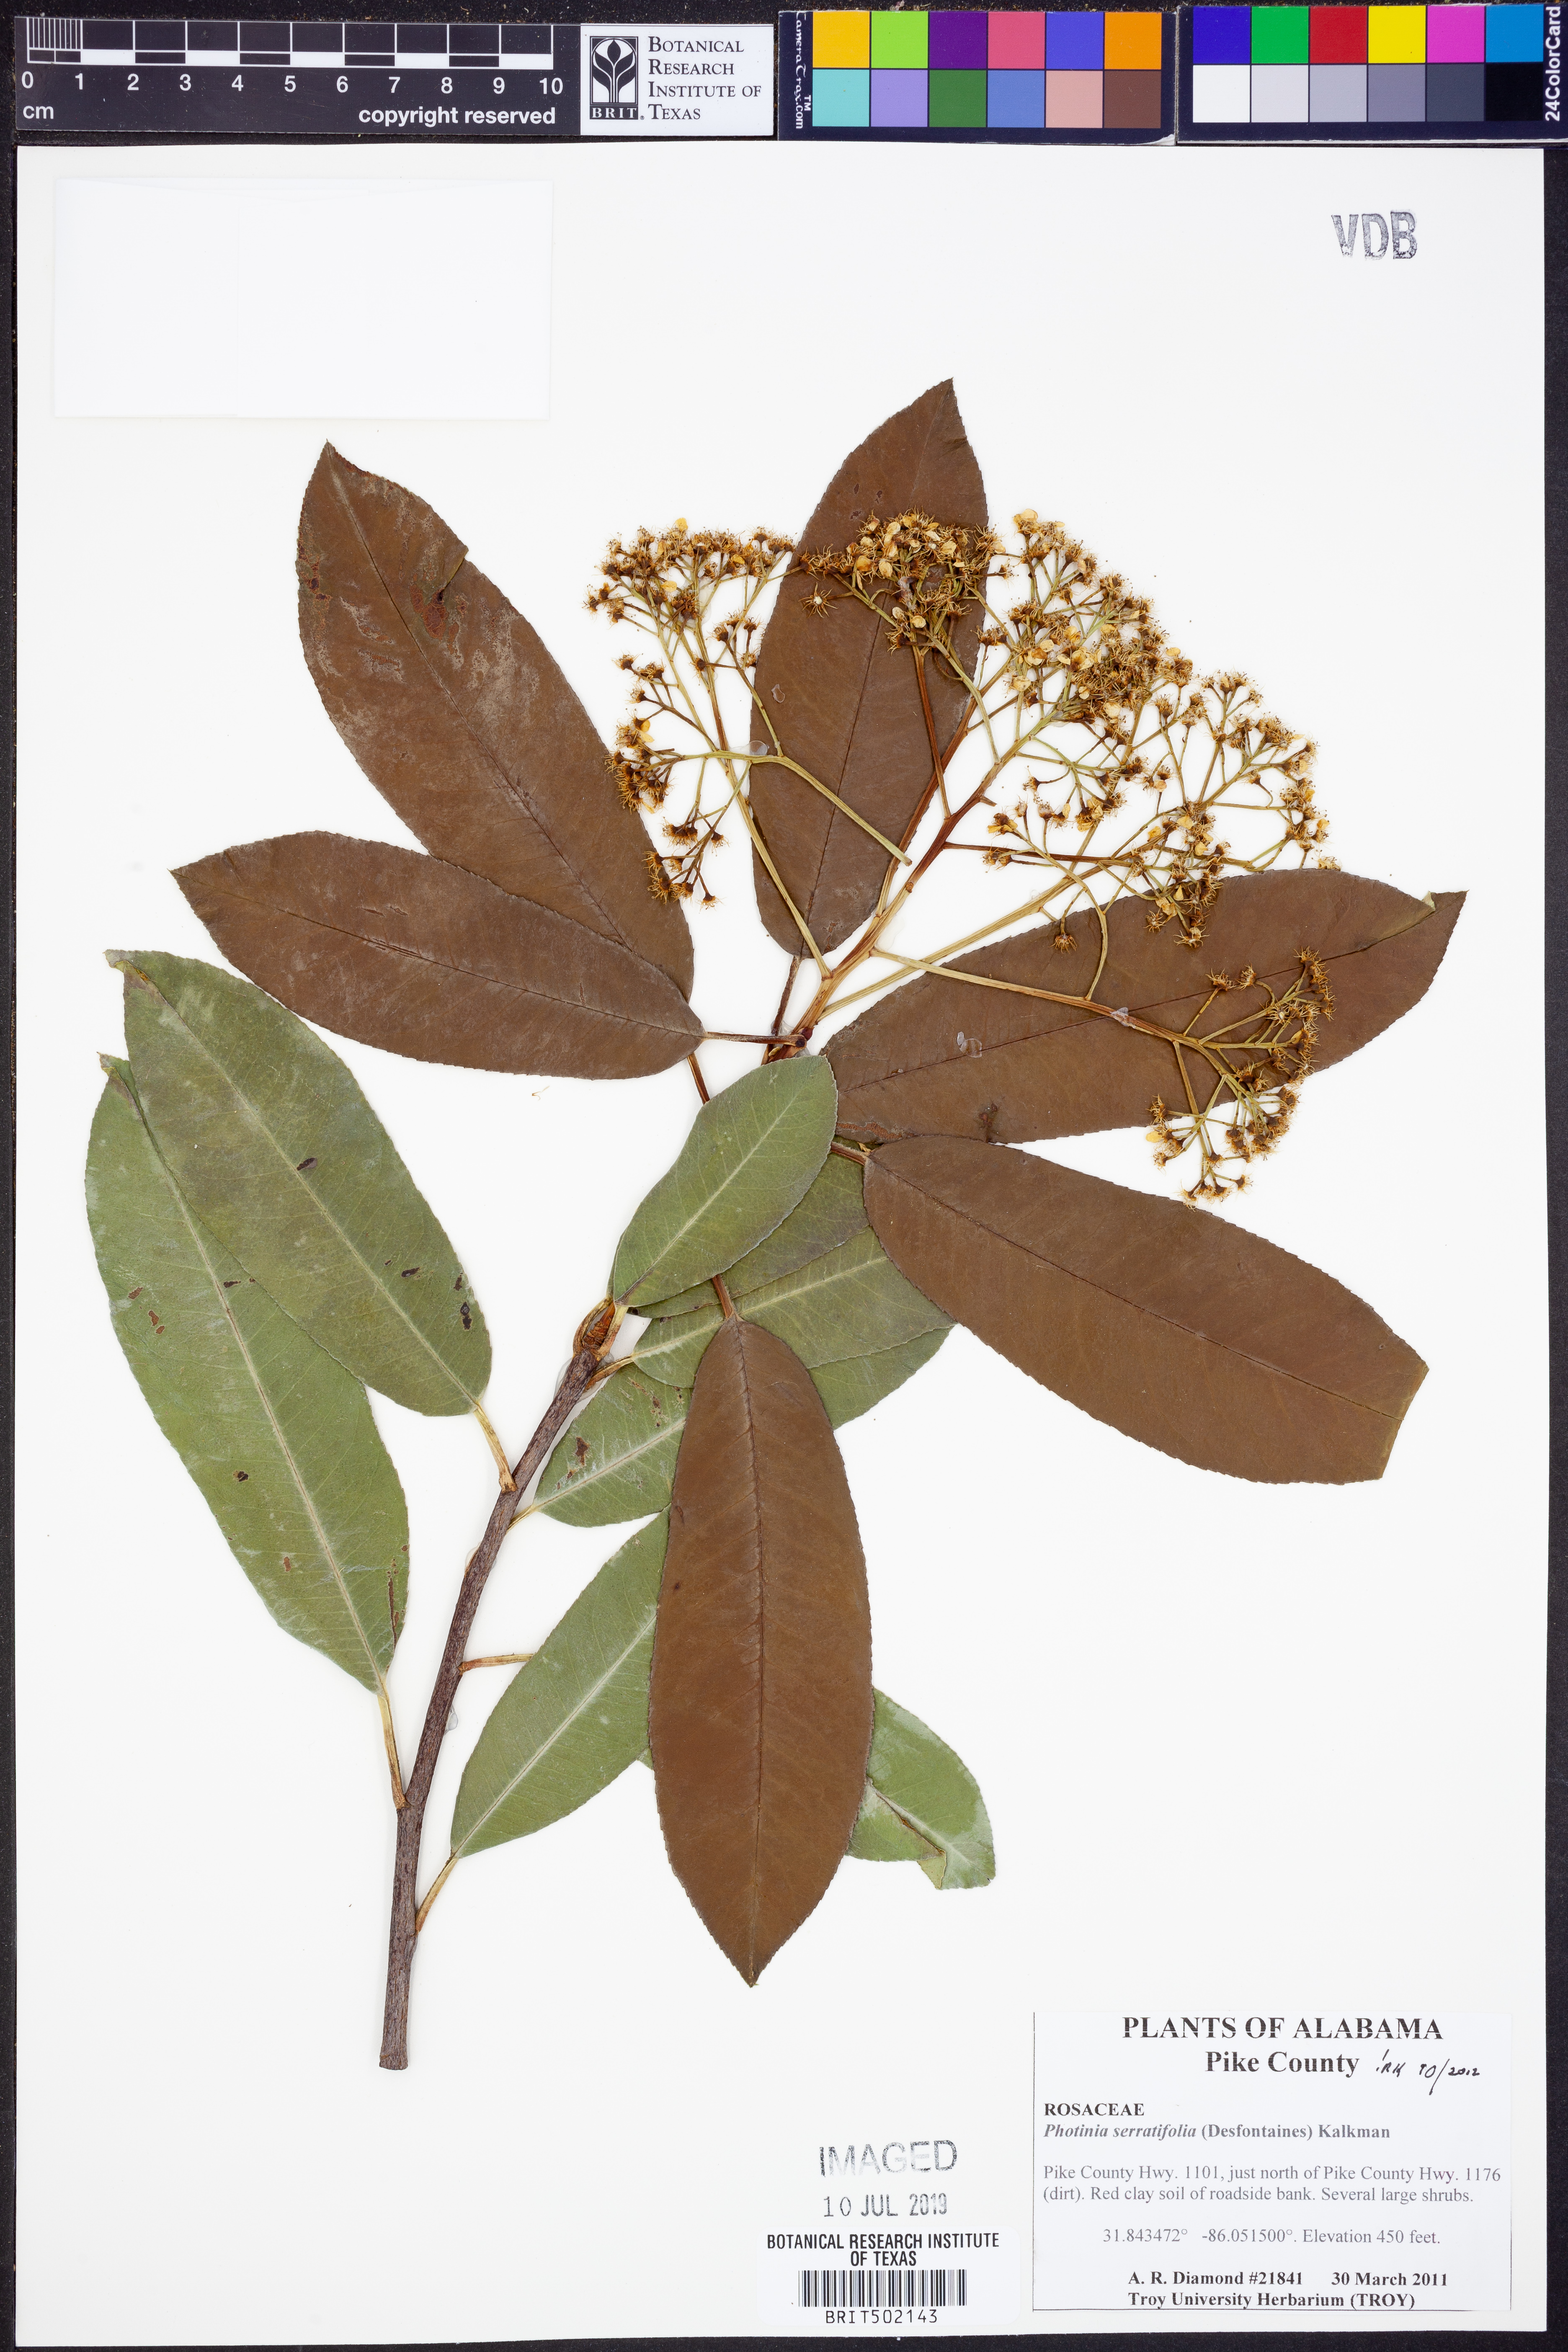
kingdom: Plantae
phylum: Tracheophyta
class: Magnoliopsida
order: Rosales
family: Rosaceae
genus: Photinia
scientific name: Photinia serratifolia
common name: Taiwanese photinia
